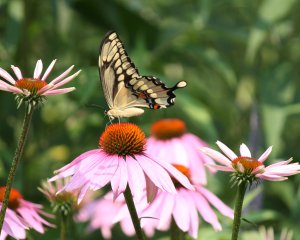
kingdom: Animalia
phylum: Arthropoda
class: Insecta
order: Lepidoptera
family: Papilionidae
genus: Papilio
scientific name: Papilio cresphontes
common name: Eastern Giant Swallowtail
